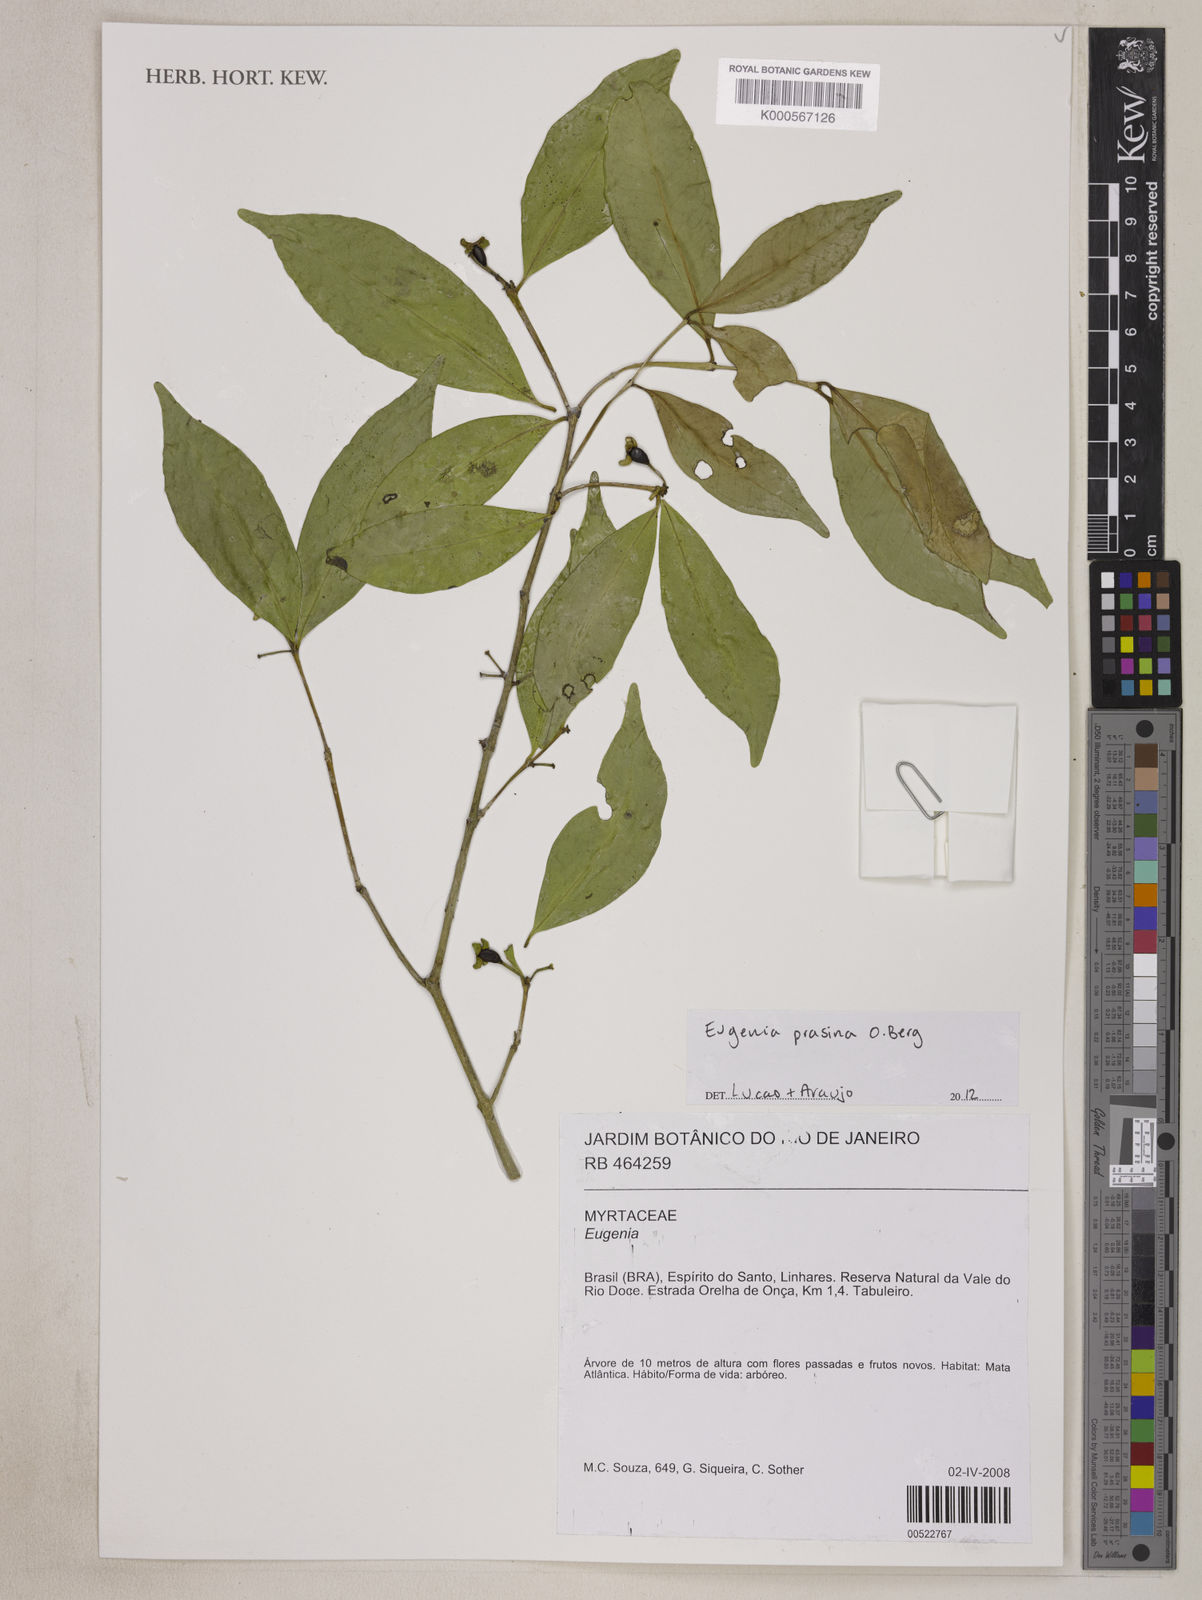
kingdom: Plantae
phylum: Tracheophyta
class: Magnoliopsida
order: Myrtales
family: Myrtaceae
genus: Eugenia
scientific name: Eugenia prasina
